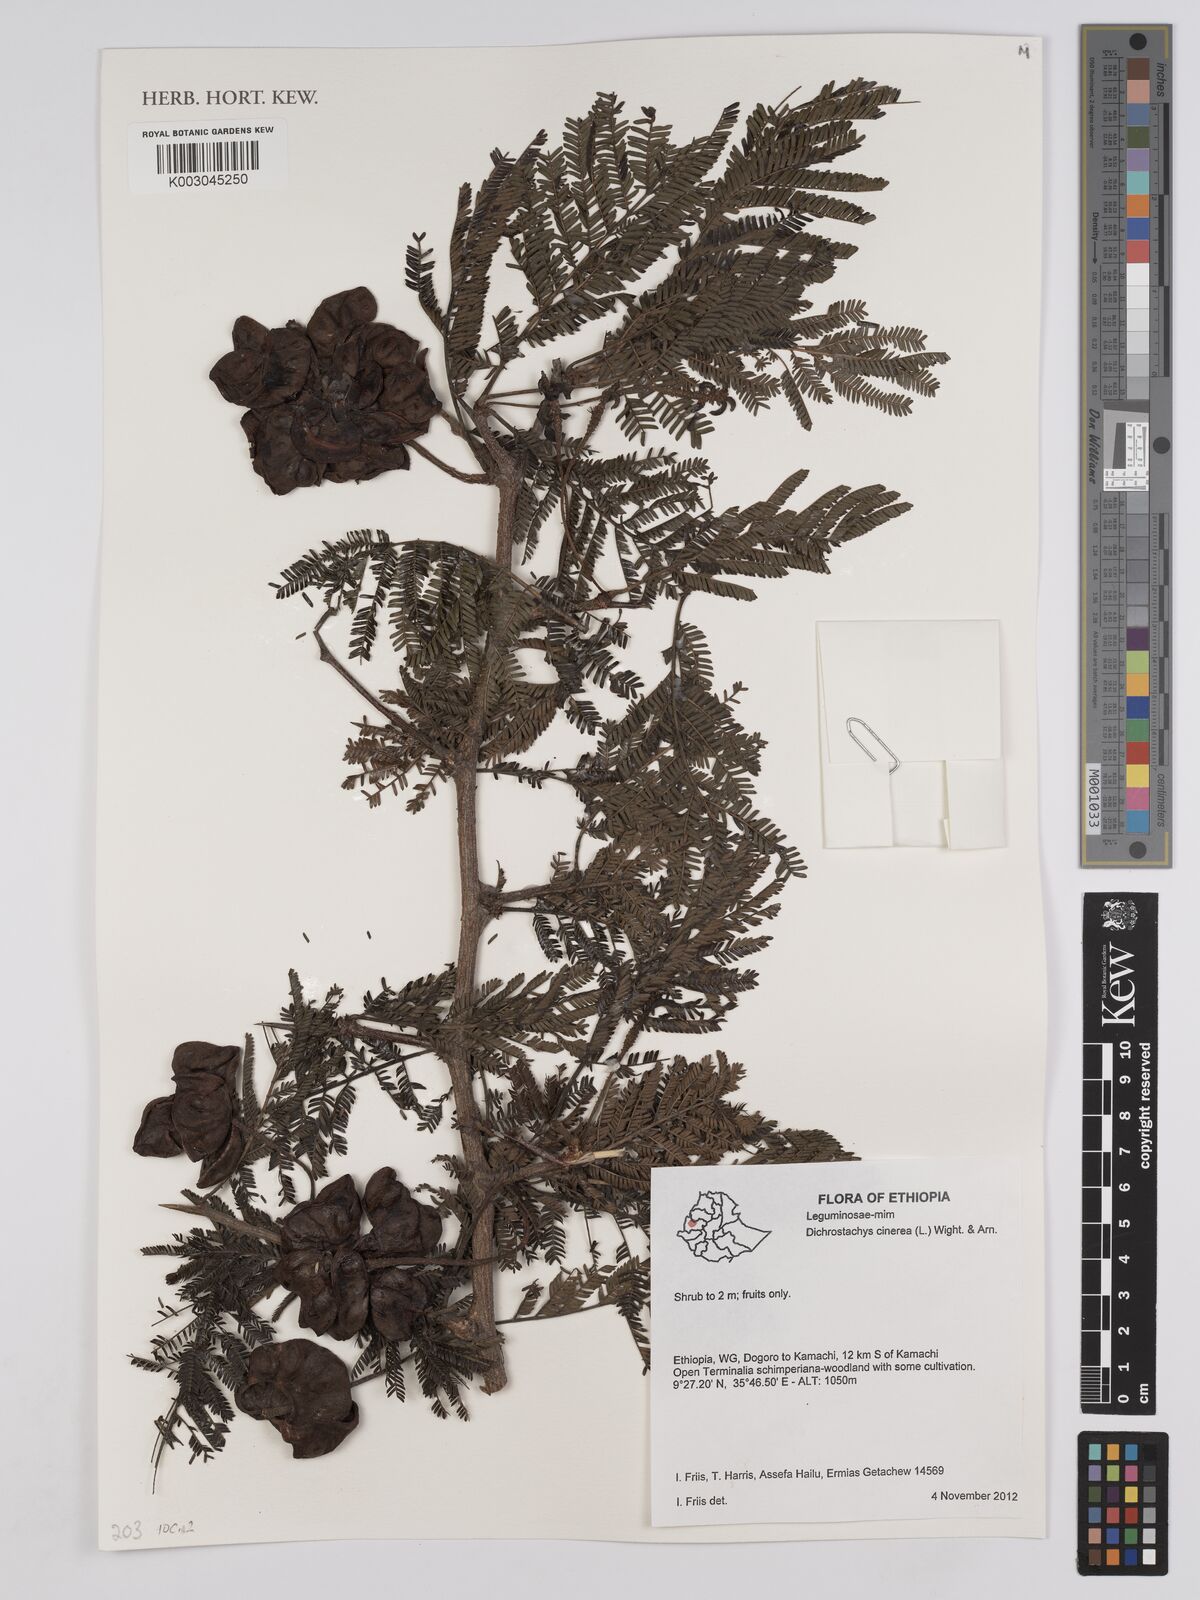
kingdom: Plantae
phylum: Tracheophyta
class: Magnoliopsida
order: Fabales
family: Fabaceae
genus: Dichrostachys
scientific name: Dichrostachys cinerea
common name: Sicklebush
